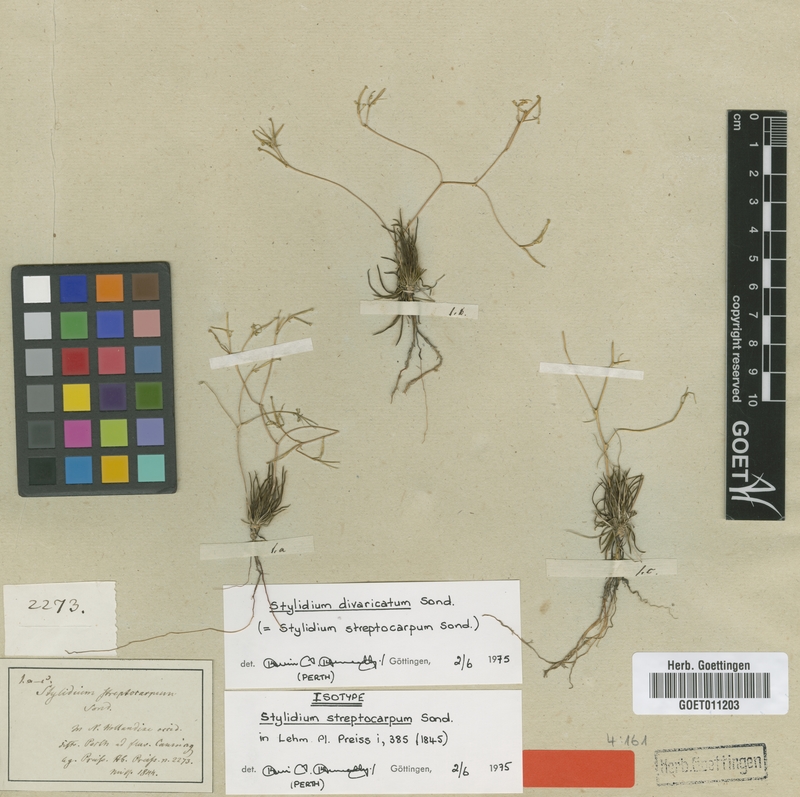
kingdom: Plantae
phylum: Tracheophyta
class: Magnoliopsida
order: Asterales
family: Stylidiaceae
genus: Stylidium
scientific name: Stylidium divaricatum
